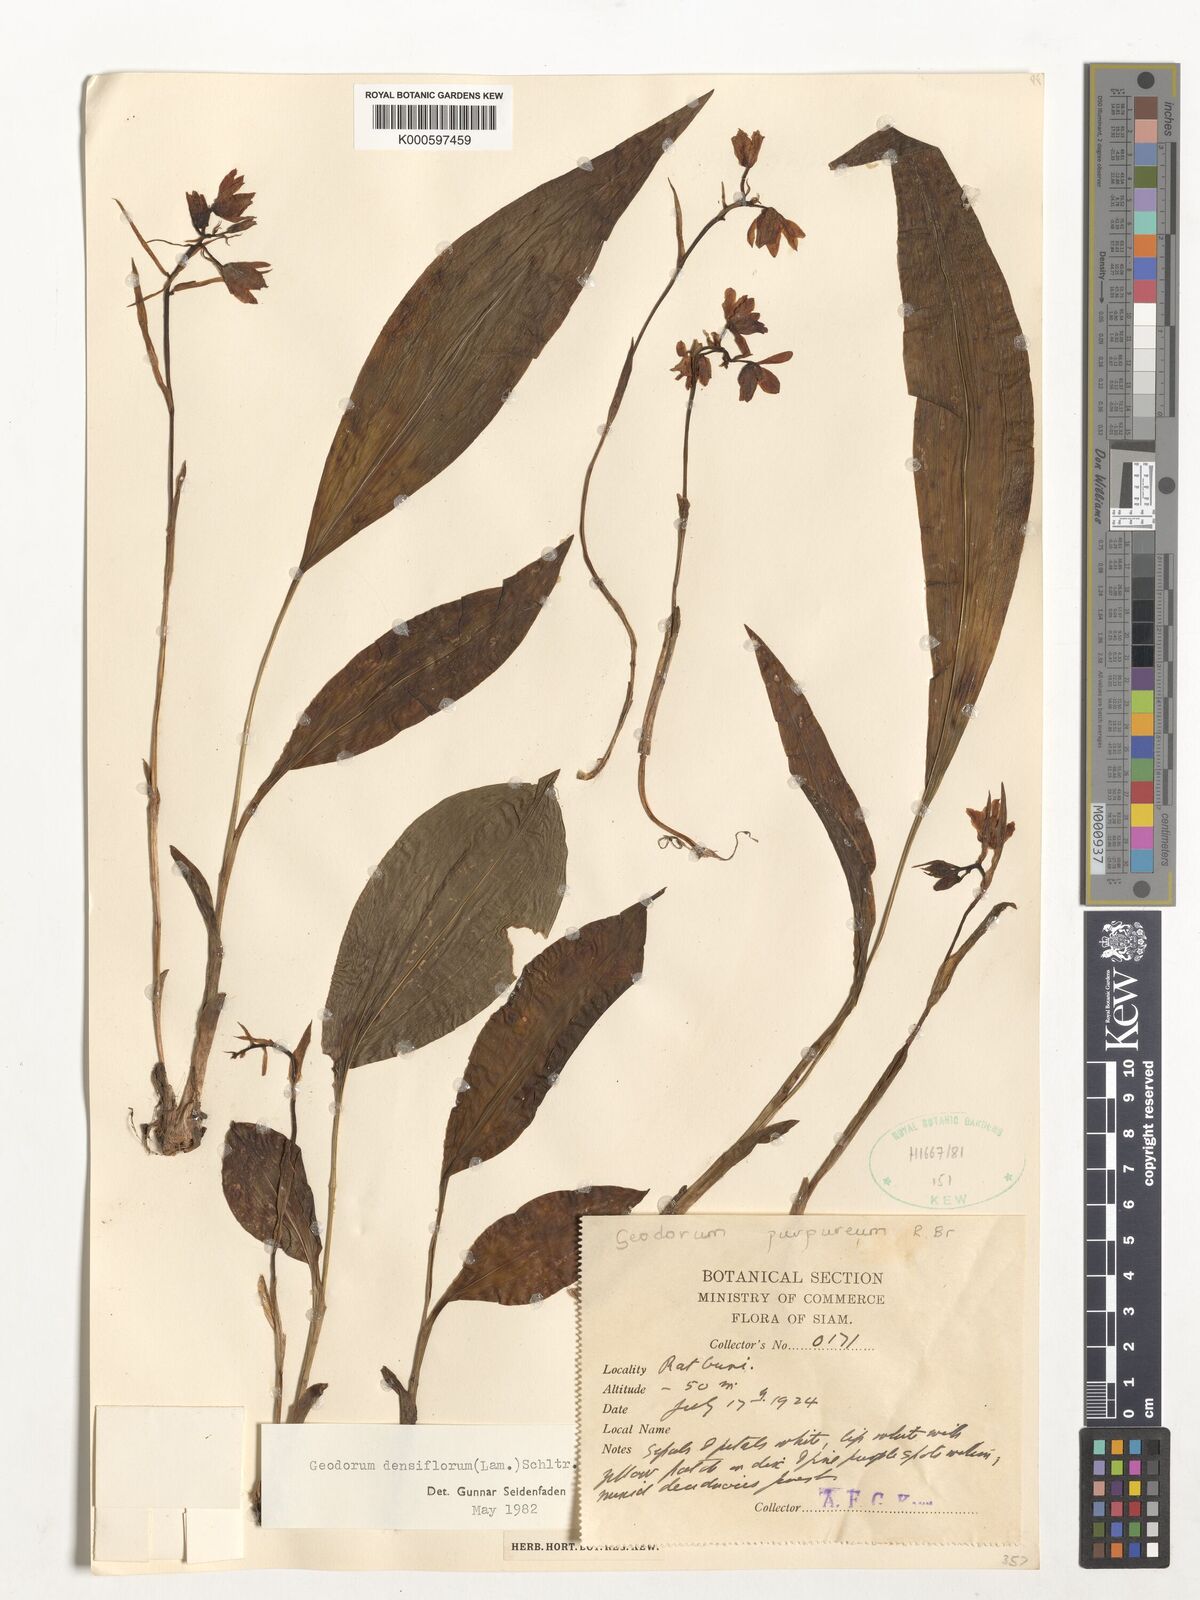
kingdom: Plantae
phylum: Tracheophyta
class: Liliopsida
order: Asparagales
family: Orchidaceae
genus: Eulophia
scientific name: Eulophia cernua
